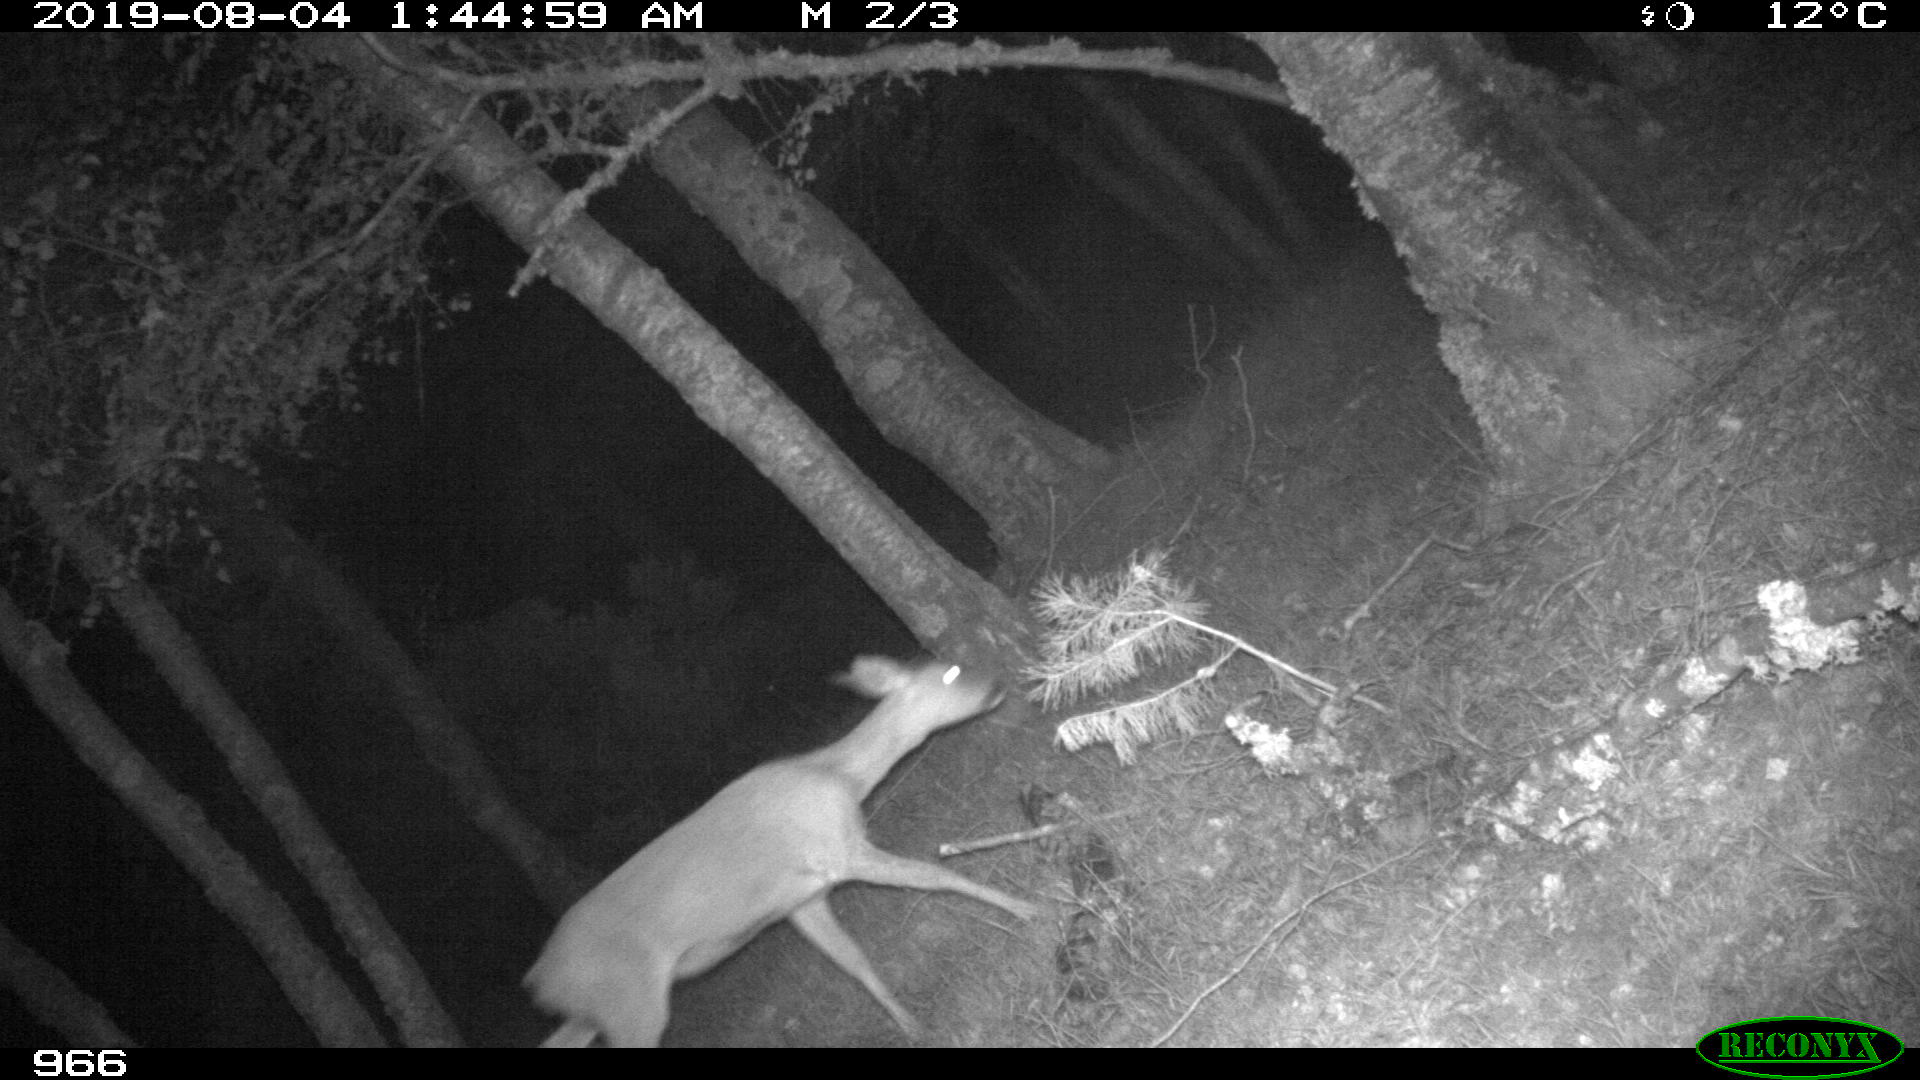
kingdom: Animalia
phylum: Chordata
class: Mammalia
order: Artiodactyla
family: Cervidae
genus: Capreolus
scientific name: Capreolus capreolus
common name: Western roe deer
